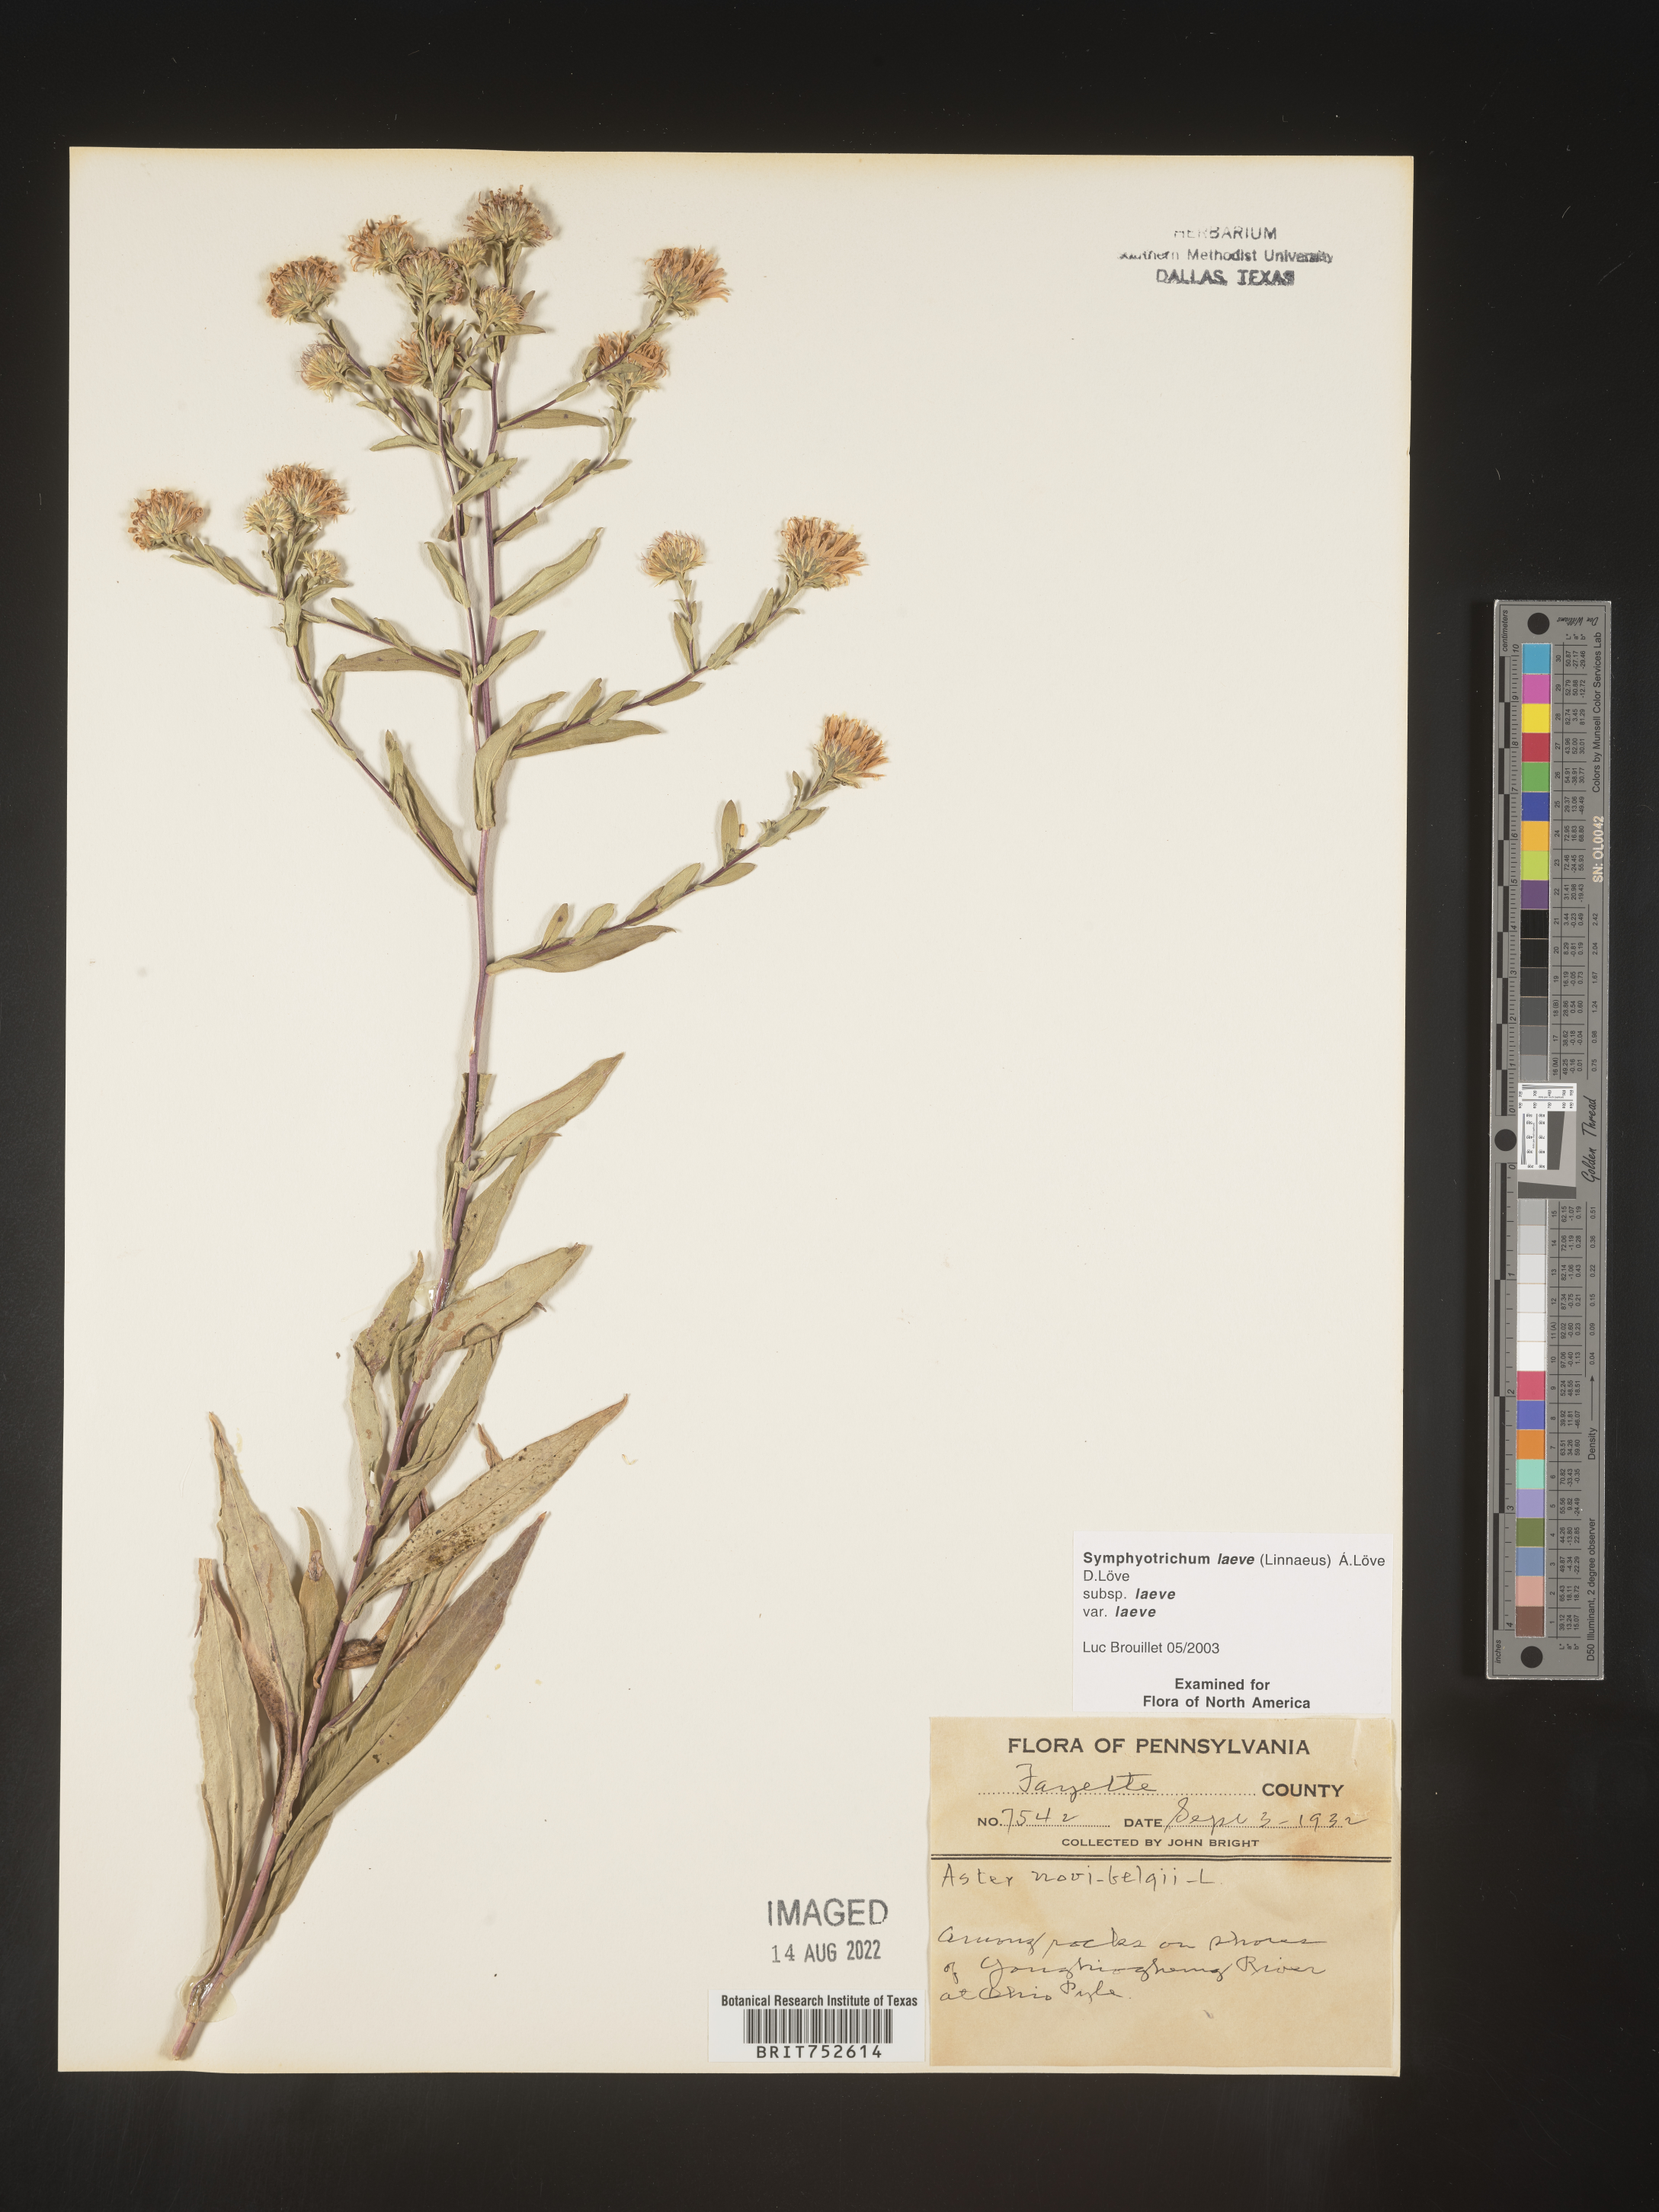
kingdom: Plantae
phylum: Tracheophyta
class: Magnoliopsida
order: Asterales
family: Asteraceae
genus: Symphyotrichum
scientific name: Symphyotrichum laeve
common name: Glaucous aster
